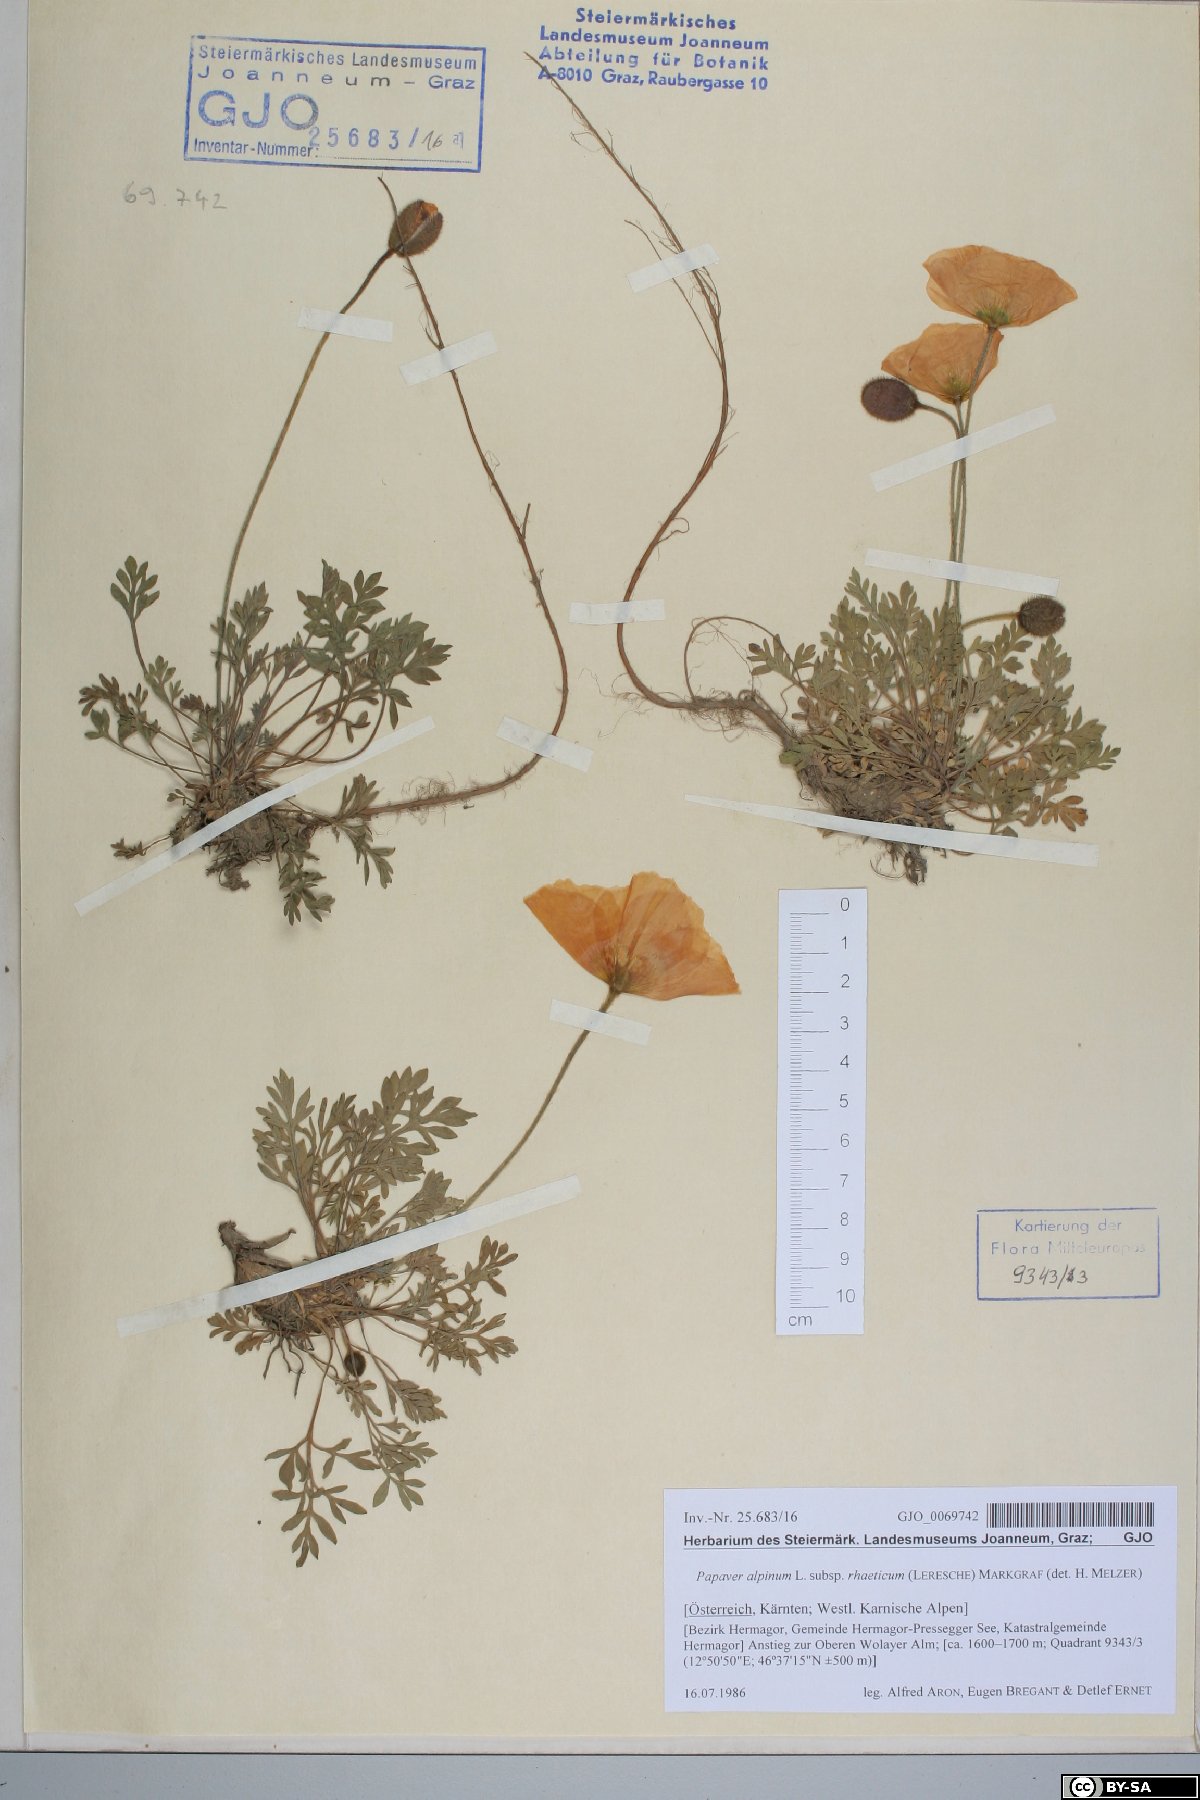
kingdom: Plantae
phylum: Tracheophyta
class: Magnoliopsida
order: Ranunculales
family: Papaveraceae
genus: Papaver
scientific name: Papaver alpinum
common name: Austrian poppy
